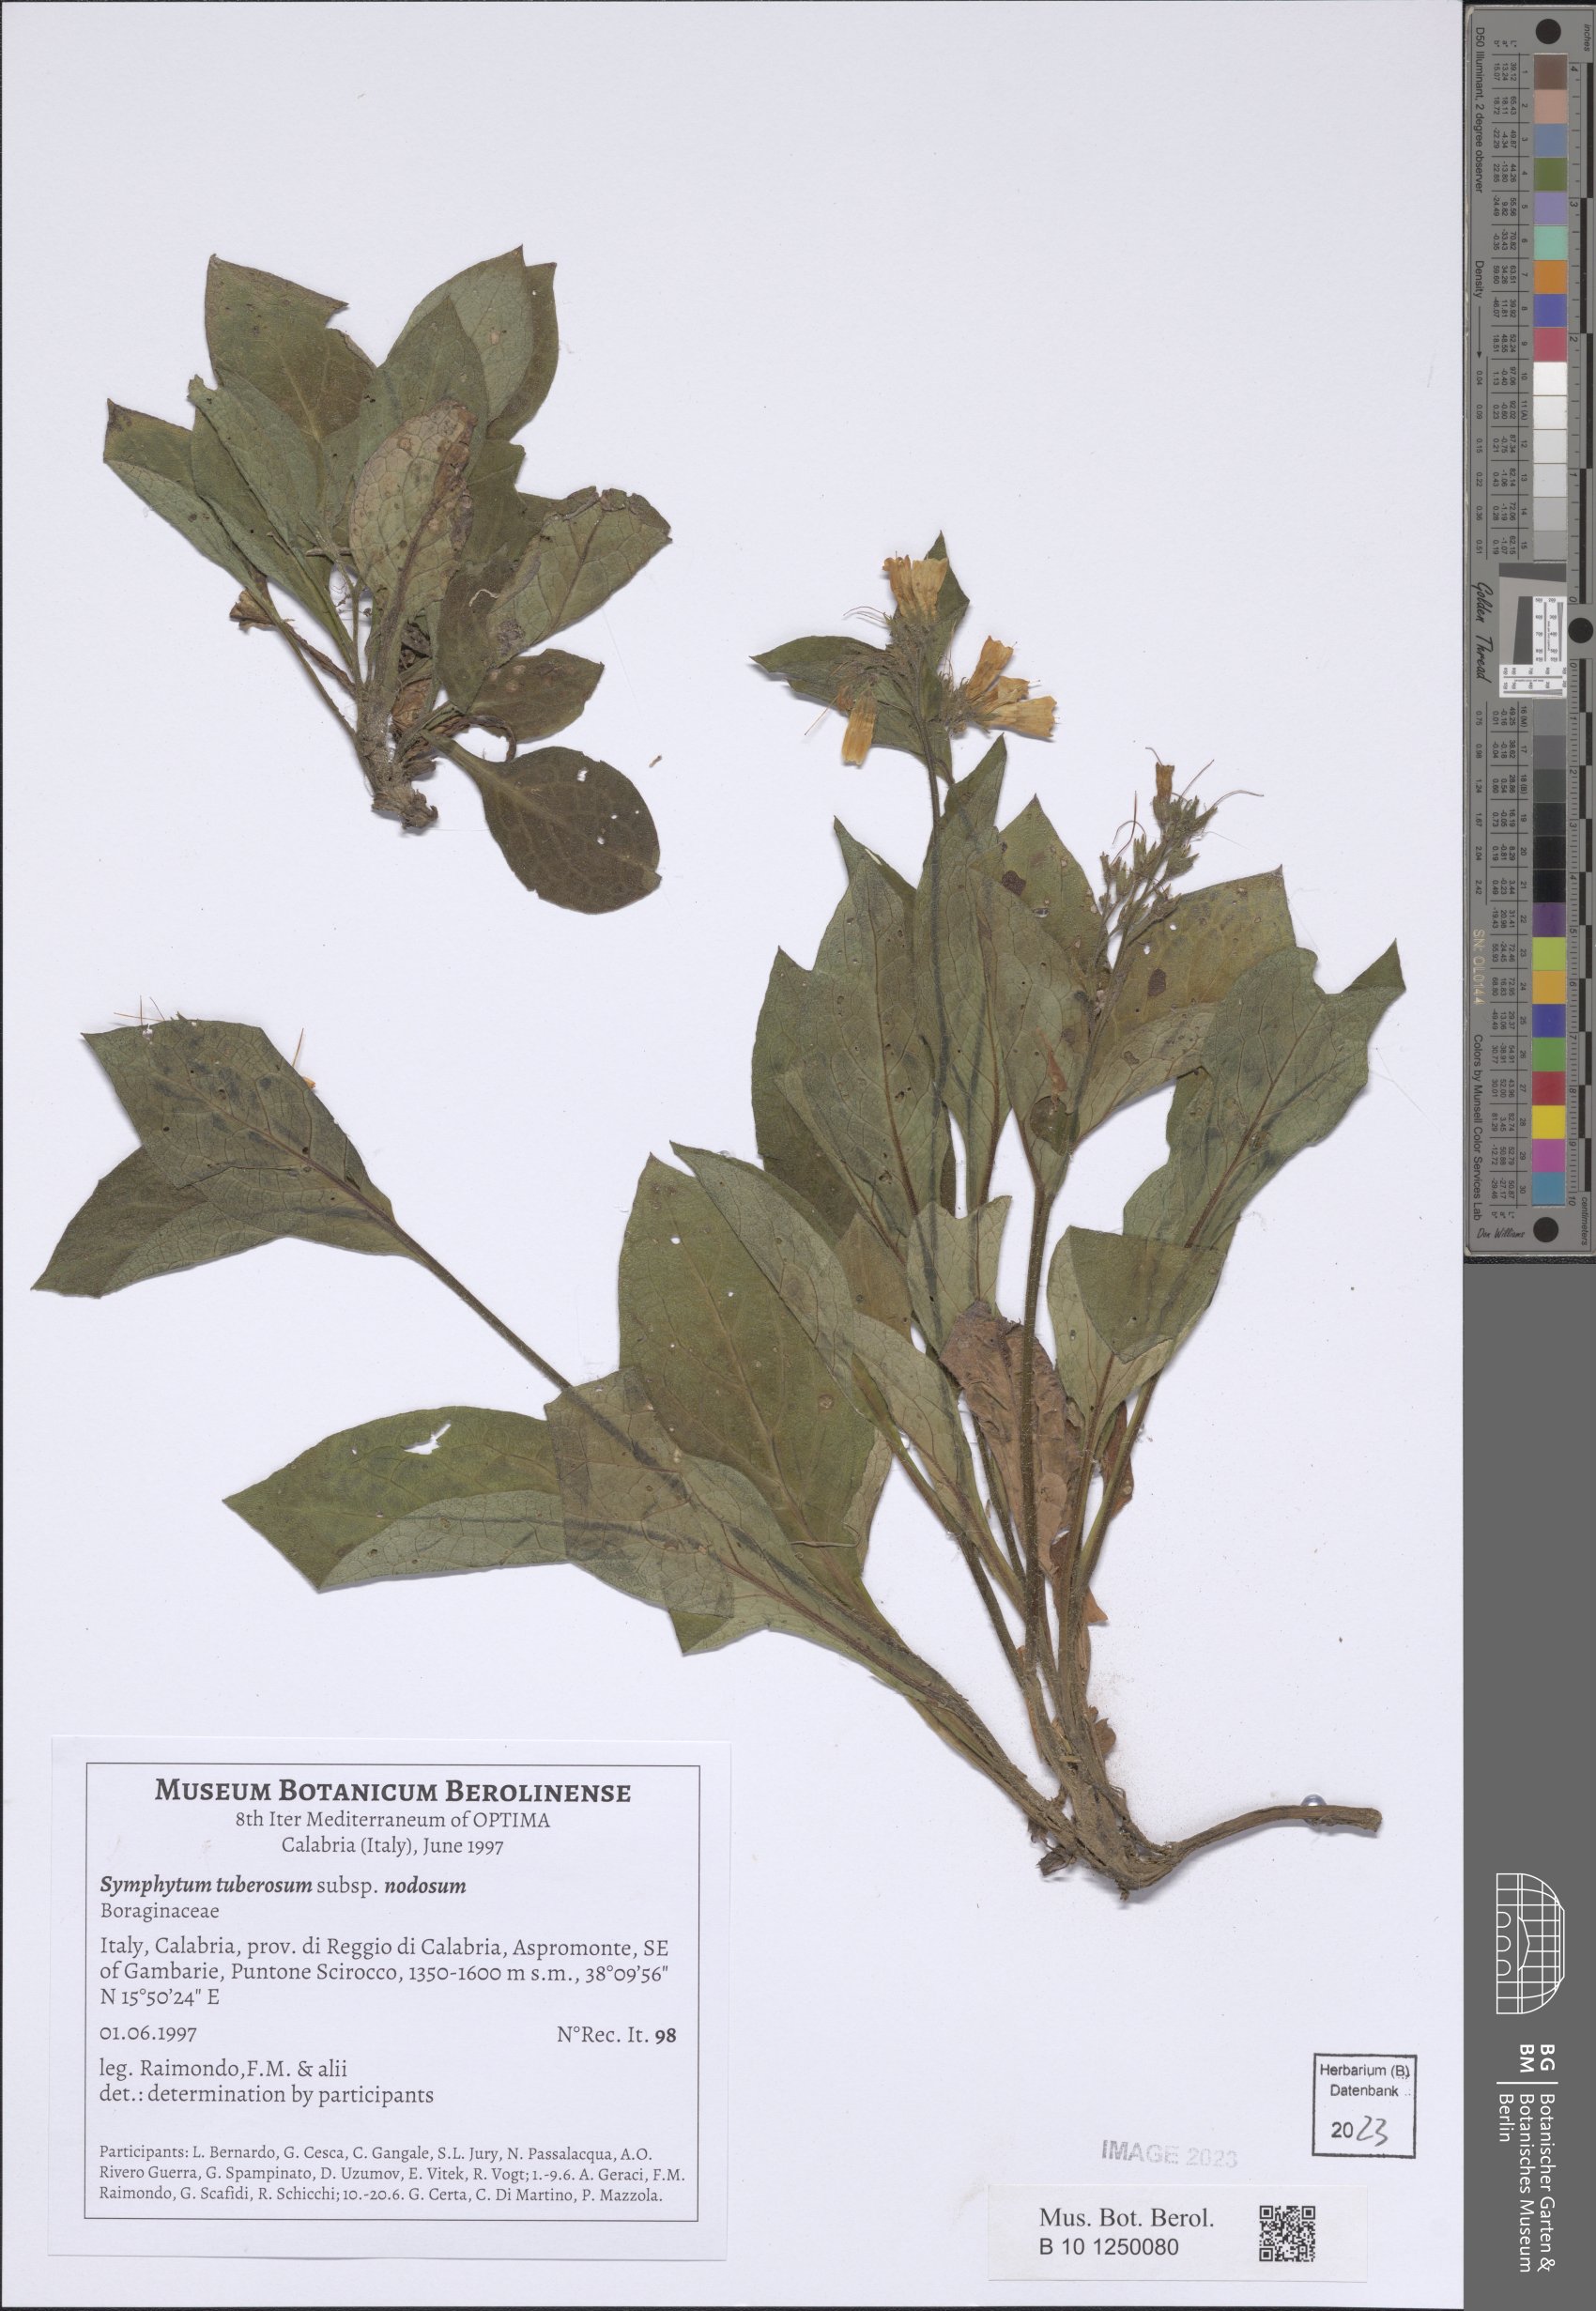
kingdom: Plantae
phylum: Tracheophyta
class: Magnoliopsida
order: Boraginales
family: Boraginaceae
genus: Symphytum
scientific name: Symphytum tuberosum
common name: Tuberous comfrey
